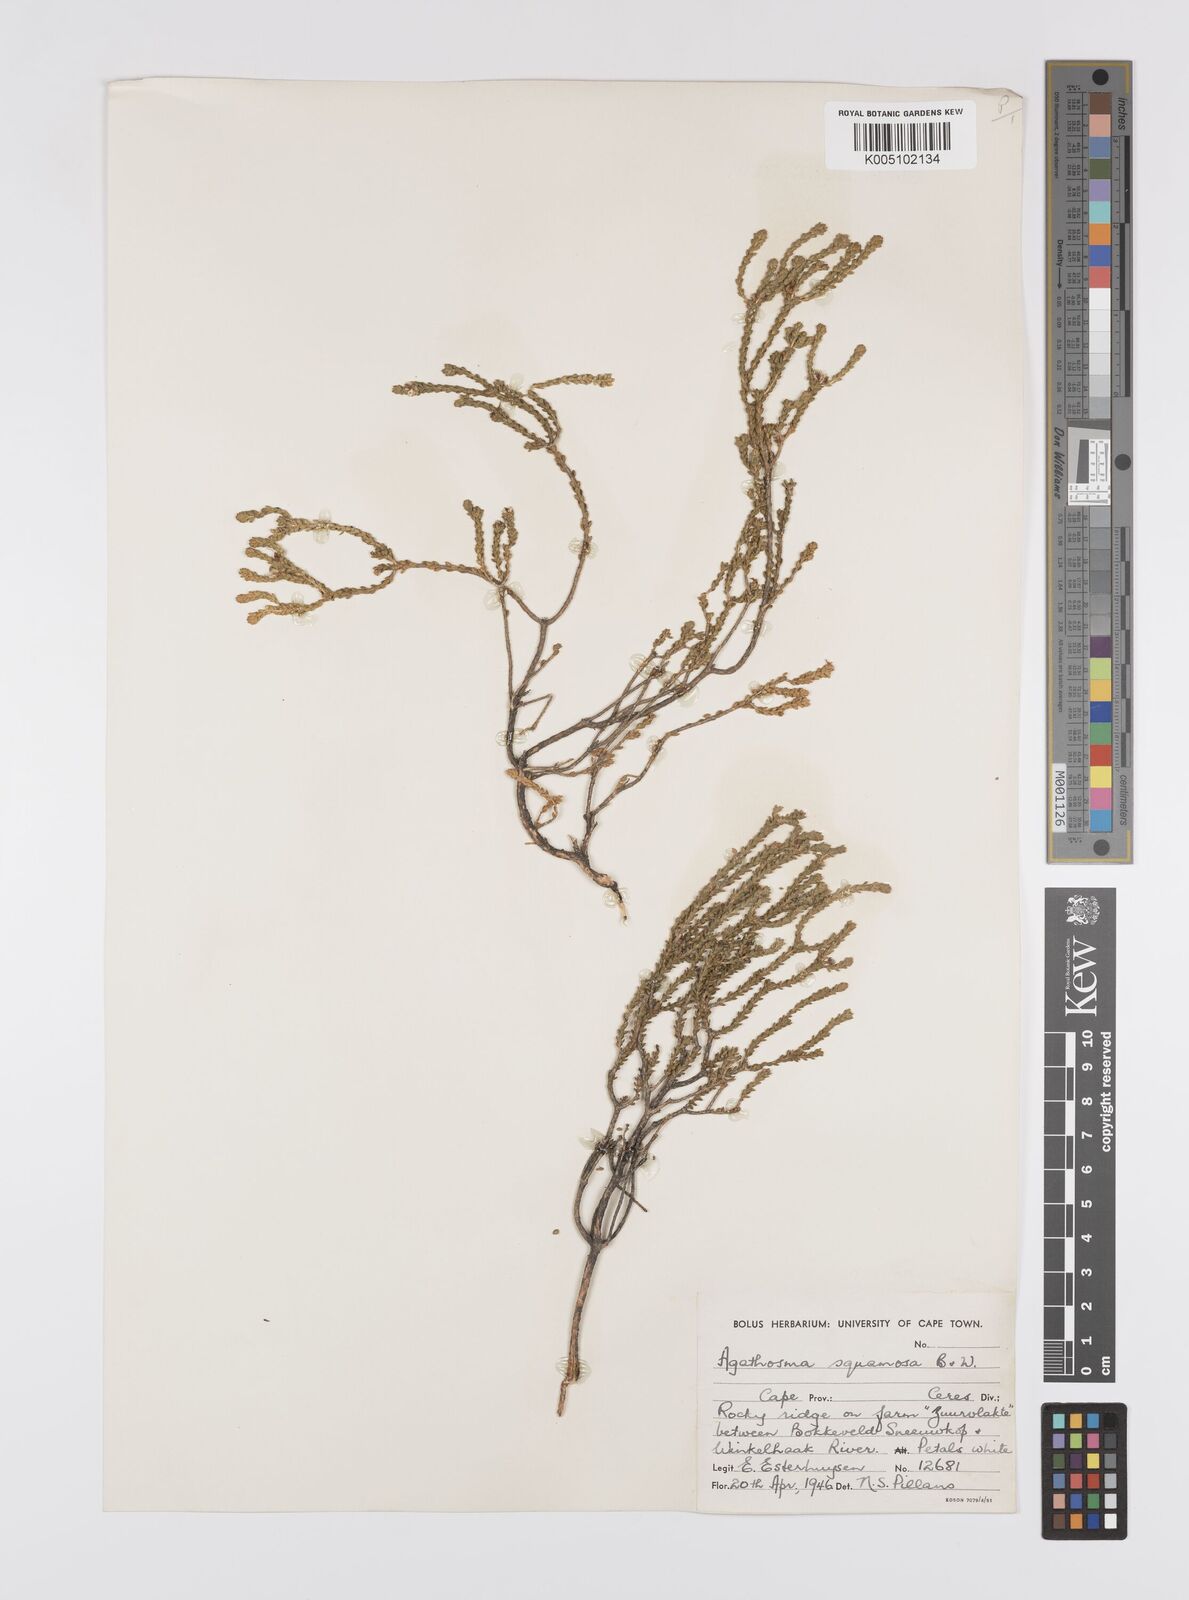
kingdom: Plantae
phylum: Tracheophyta
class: Magnoliopsida
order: Sapindales
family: Rutaceae
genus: Agathosma
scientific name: Agathosma squamosa
